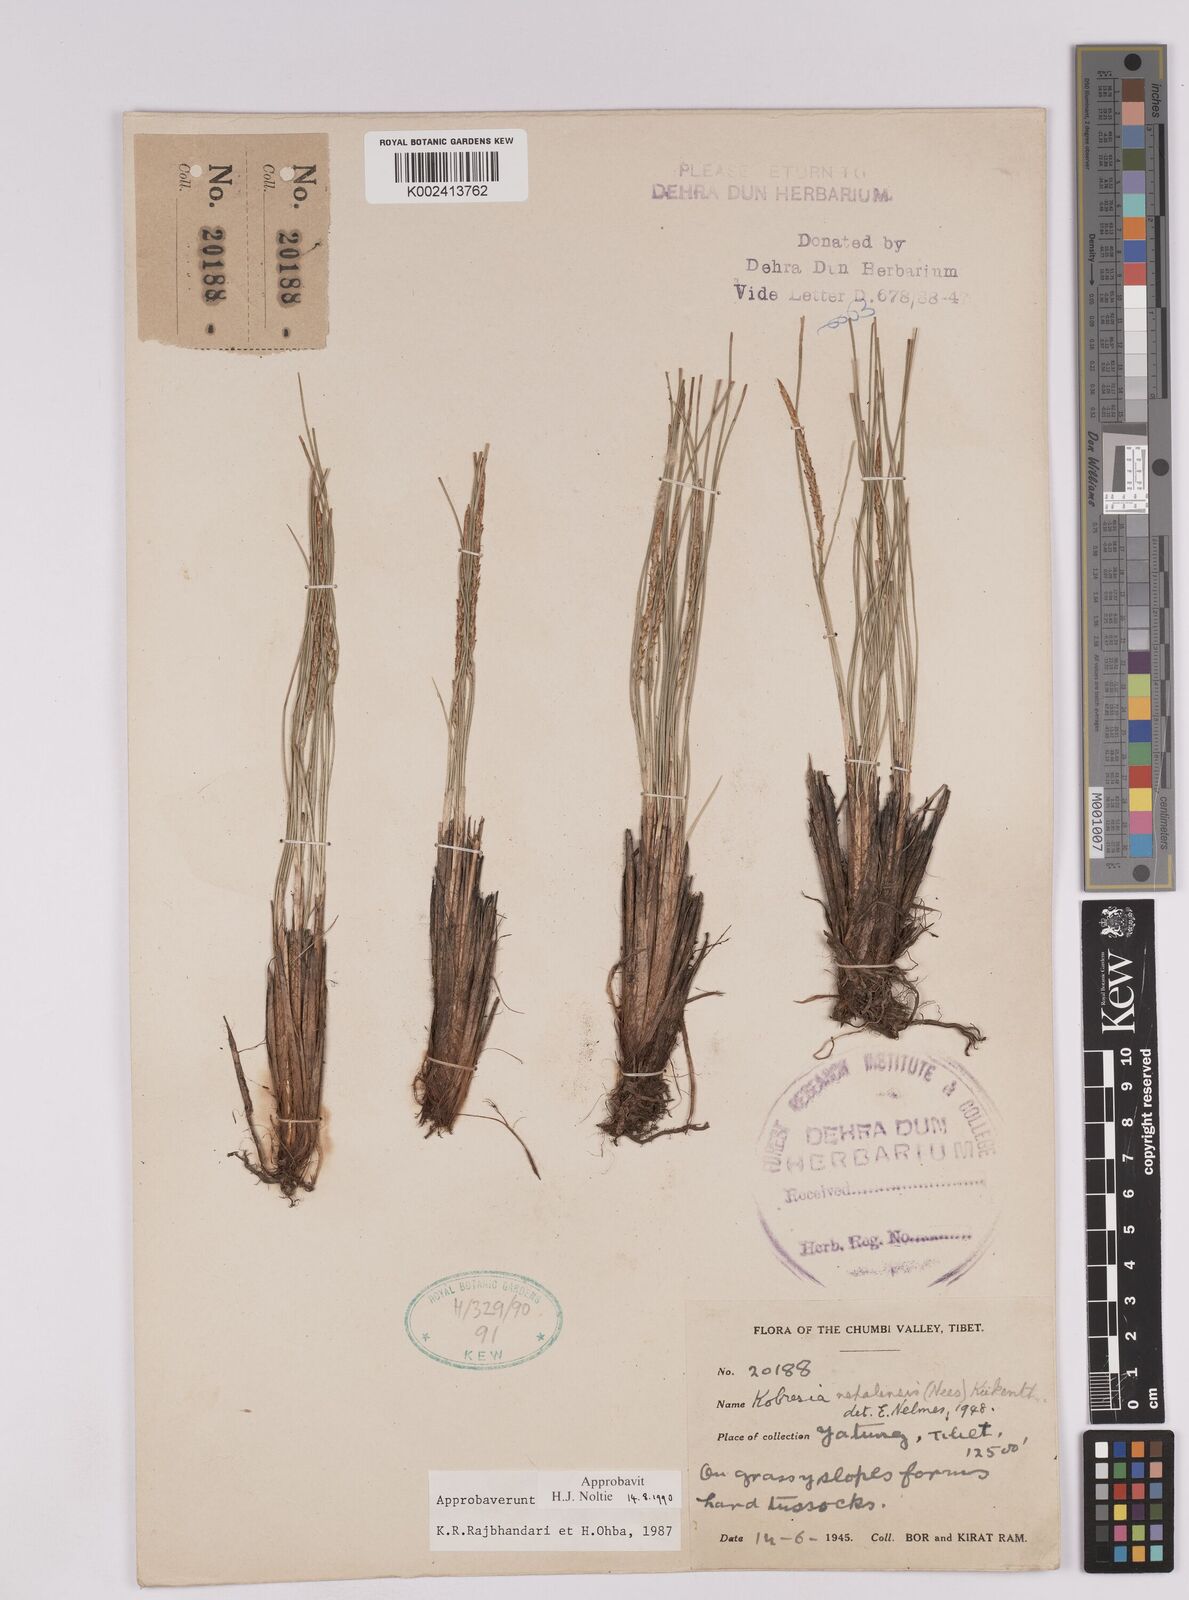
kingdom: Plantae
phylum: Tracheophyta
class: Liliopsida
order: Poales
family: Cyperaceae
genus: Carex
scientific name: Carex unciniiformis
